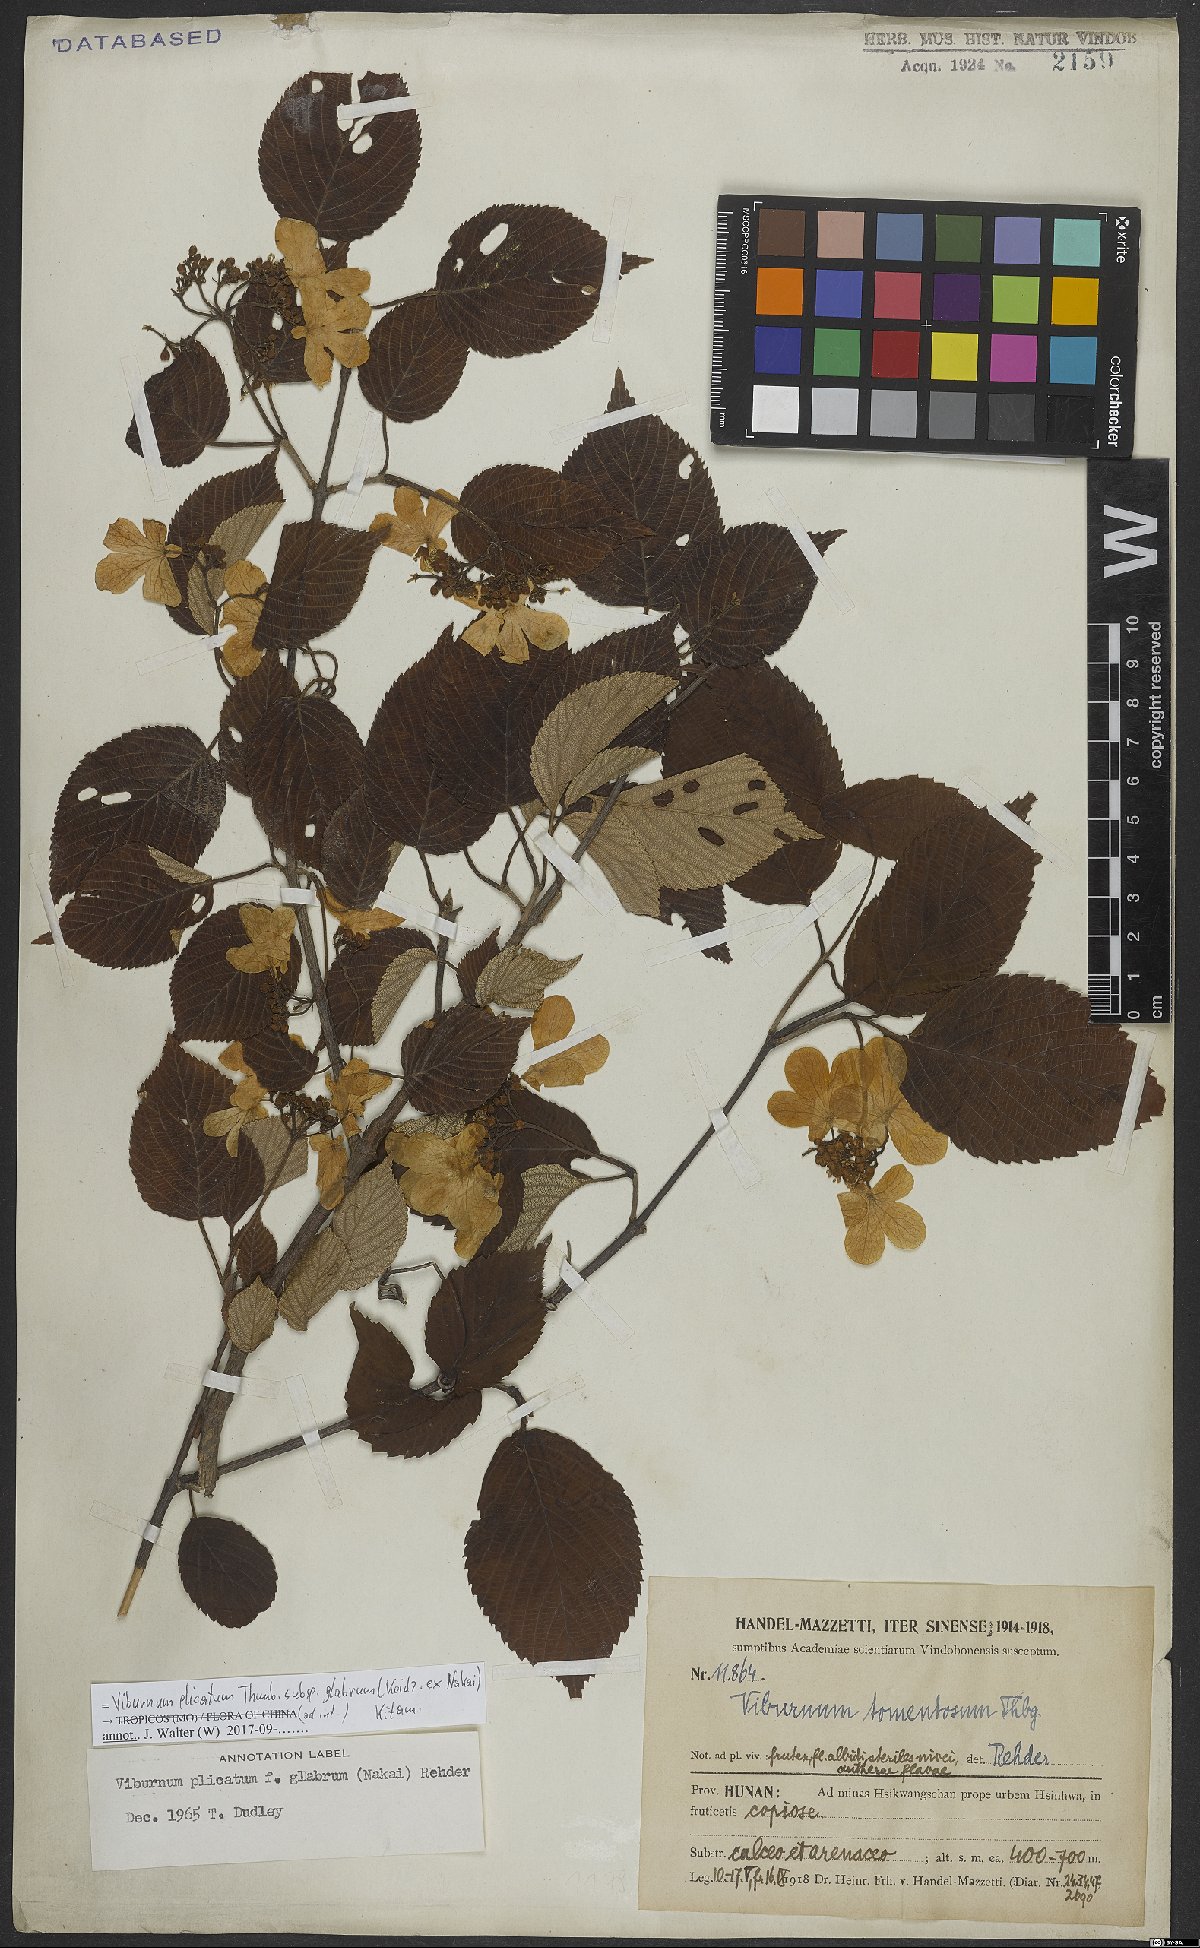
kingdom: Plantae
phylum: Tracheophyta
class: Magnoliopsida
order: Dipsacales
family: Viburnaceae
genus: Viburnum
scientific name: Viburnum plicatum
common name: Japanese snowball
